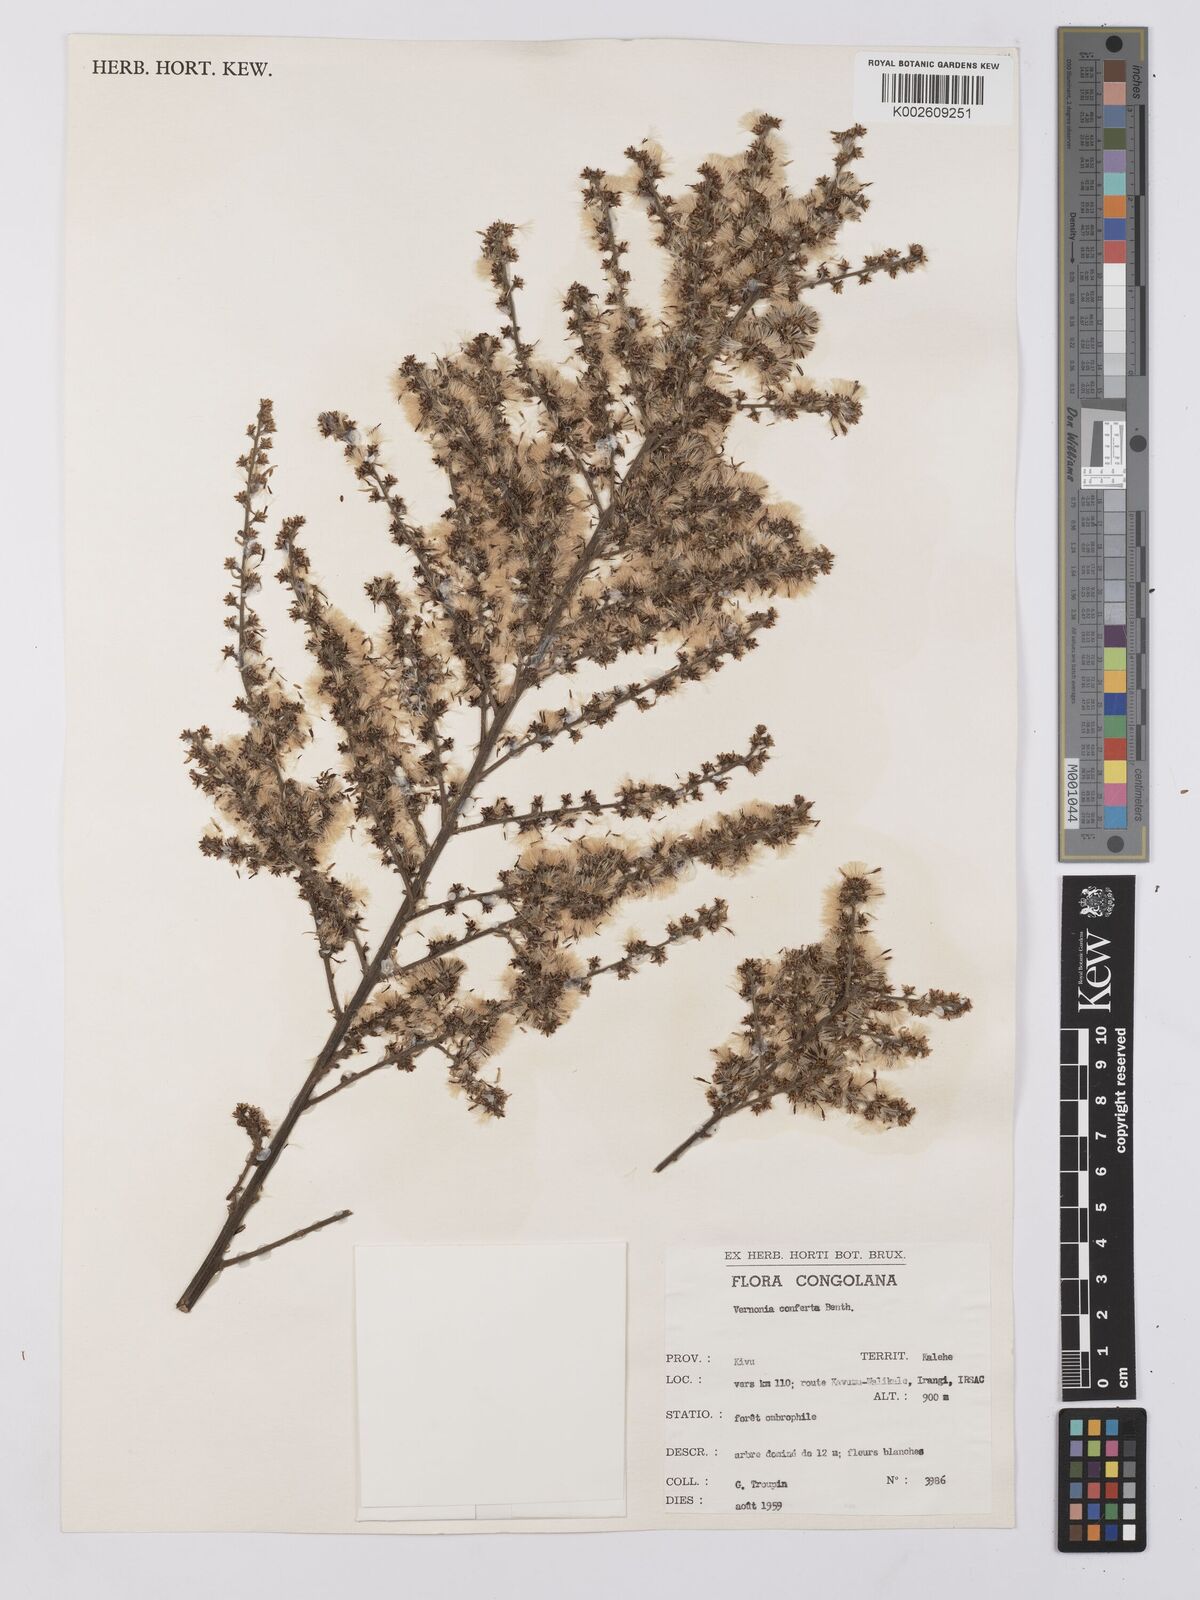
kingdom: Plantae
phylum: Tracheophyta
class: Magnoliopsida
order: Asterales
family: Asteraceae
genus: Monosis
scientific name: Monosis conferta
